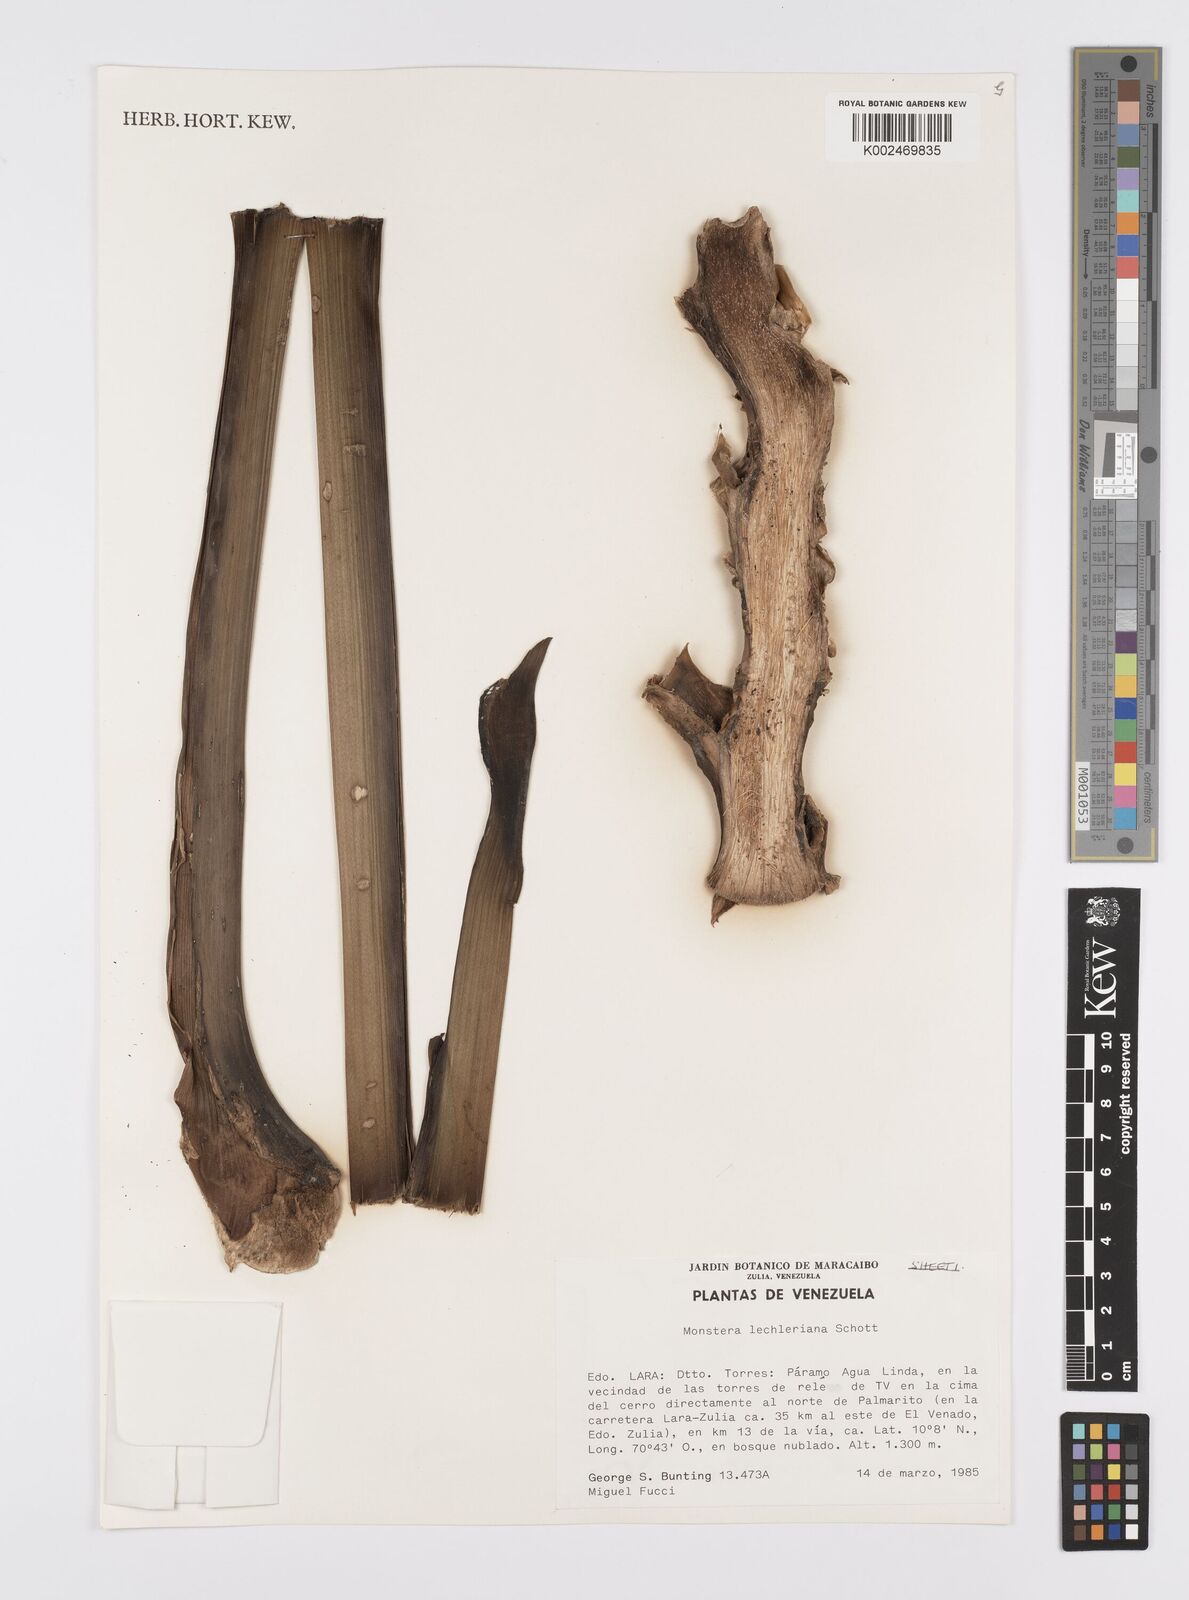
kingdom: Plantae
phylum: Tracheophyta
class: Liliopsida
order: Alismatales
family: Araceae
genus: Monstera
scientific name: Monstera lechleriana
